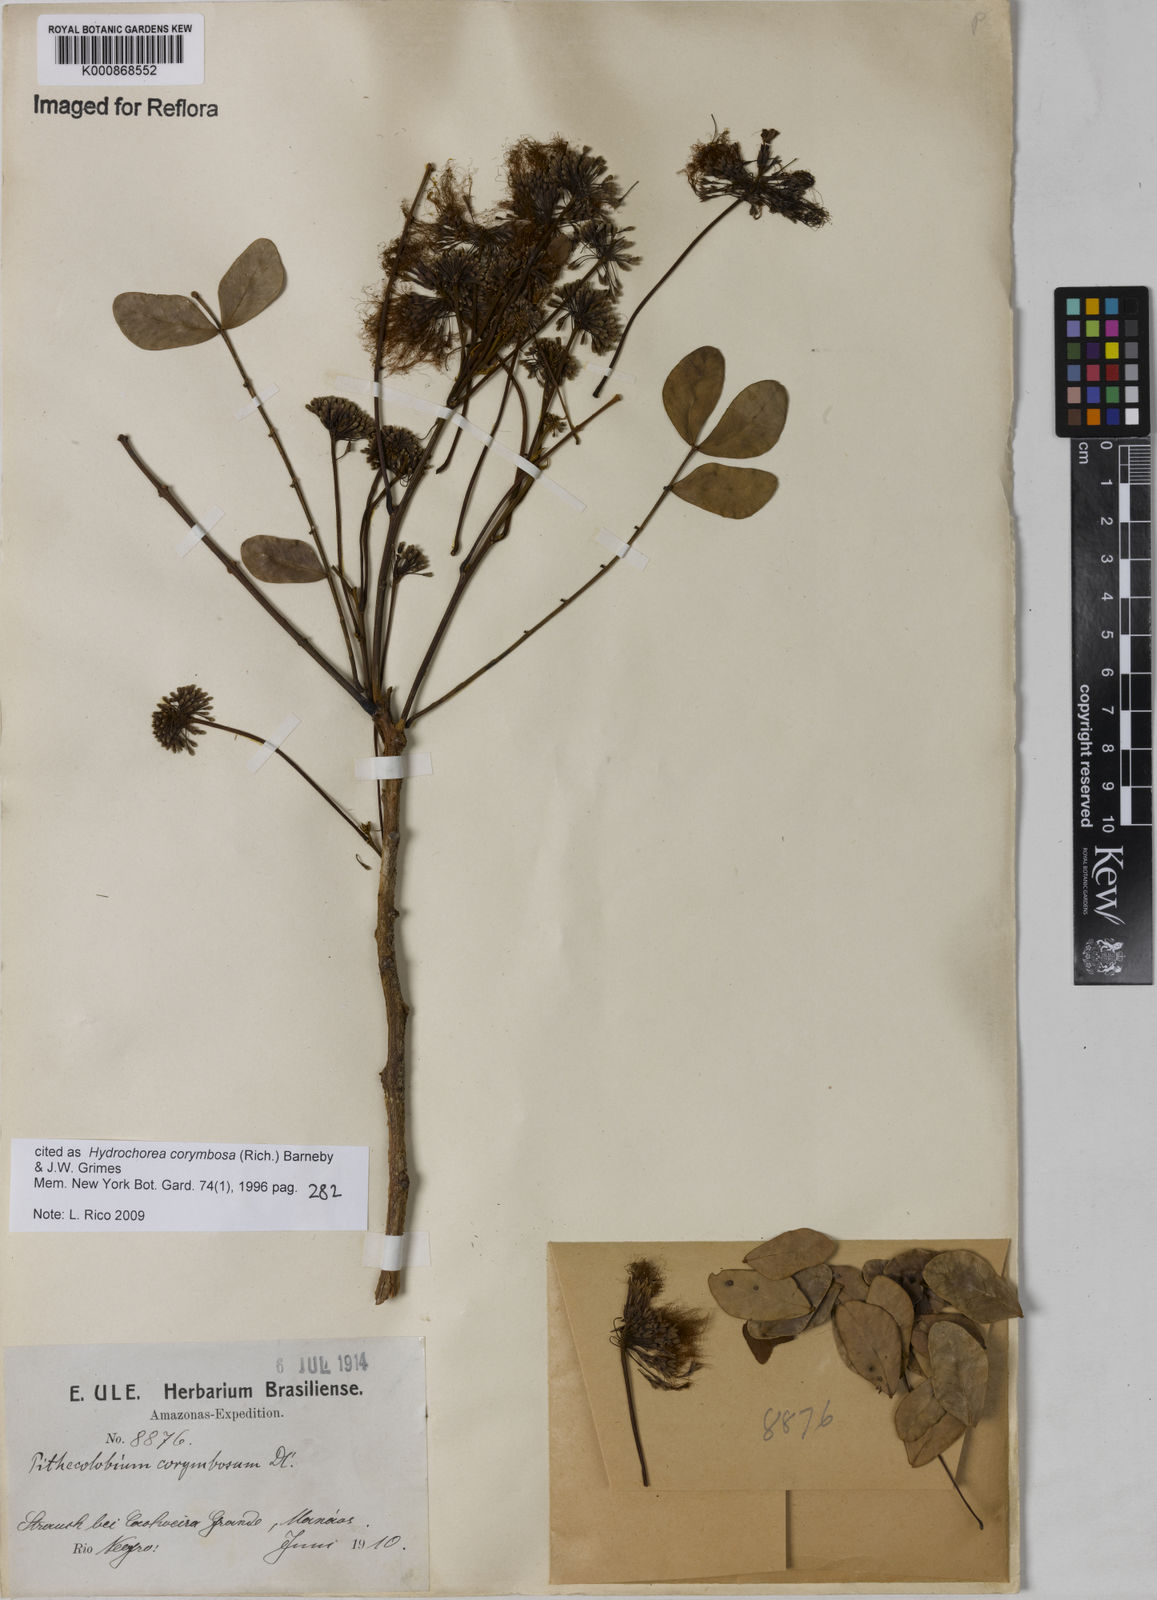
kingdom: Plantae
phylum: Tracheophyta
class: Magnoliopsida
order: Fabales
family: Fabaceae
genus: Hydrochorea
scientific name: Hydrochorea corymbosa
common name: Swamp manariballi
